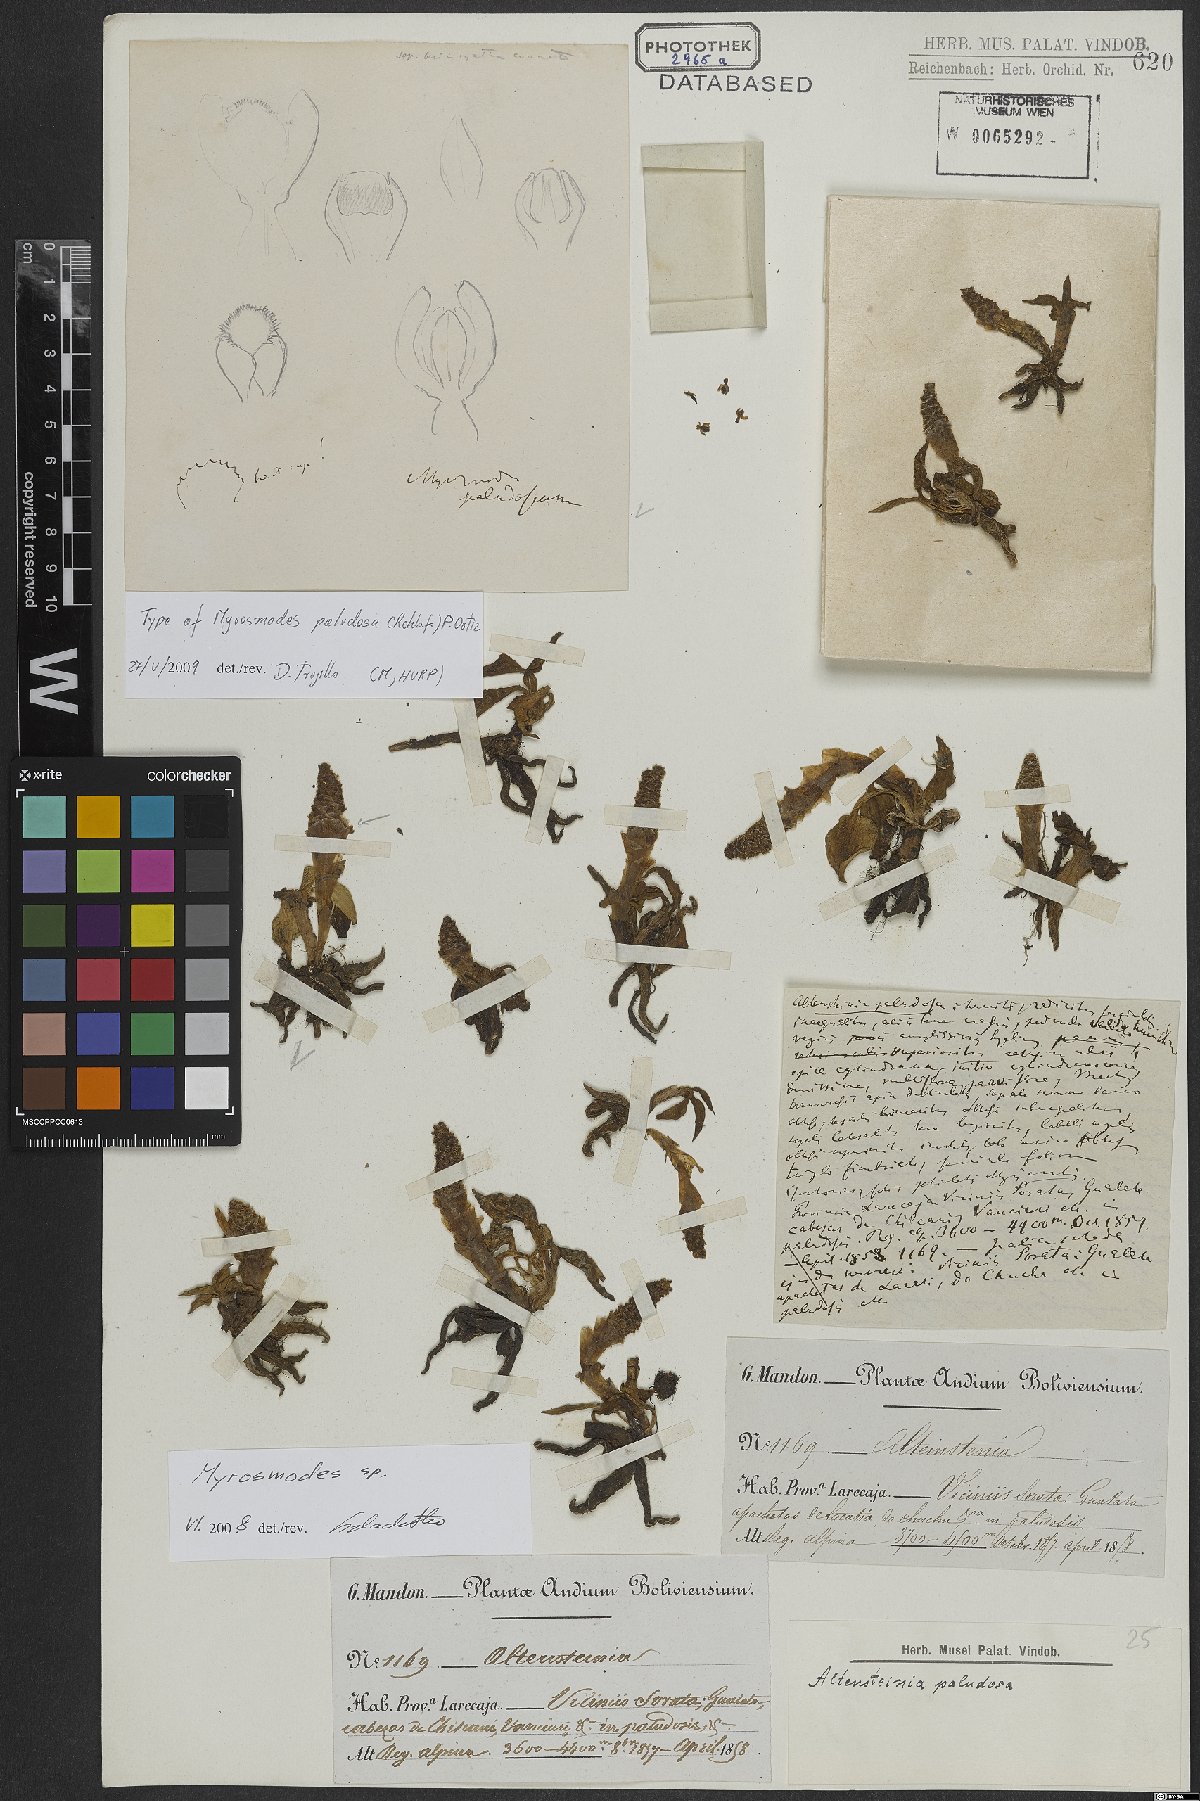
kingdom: Plantae
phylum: Tracheophyta
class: Liliopsida
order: Asparagales
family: Orchidaceae
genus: Myrosmodes
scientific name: Myrosmodes paludosa
